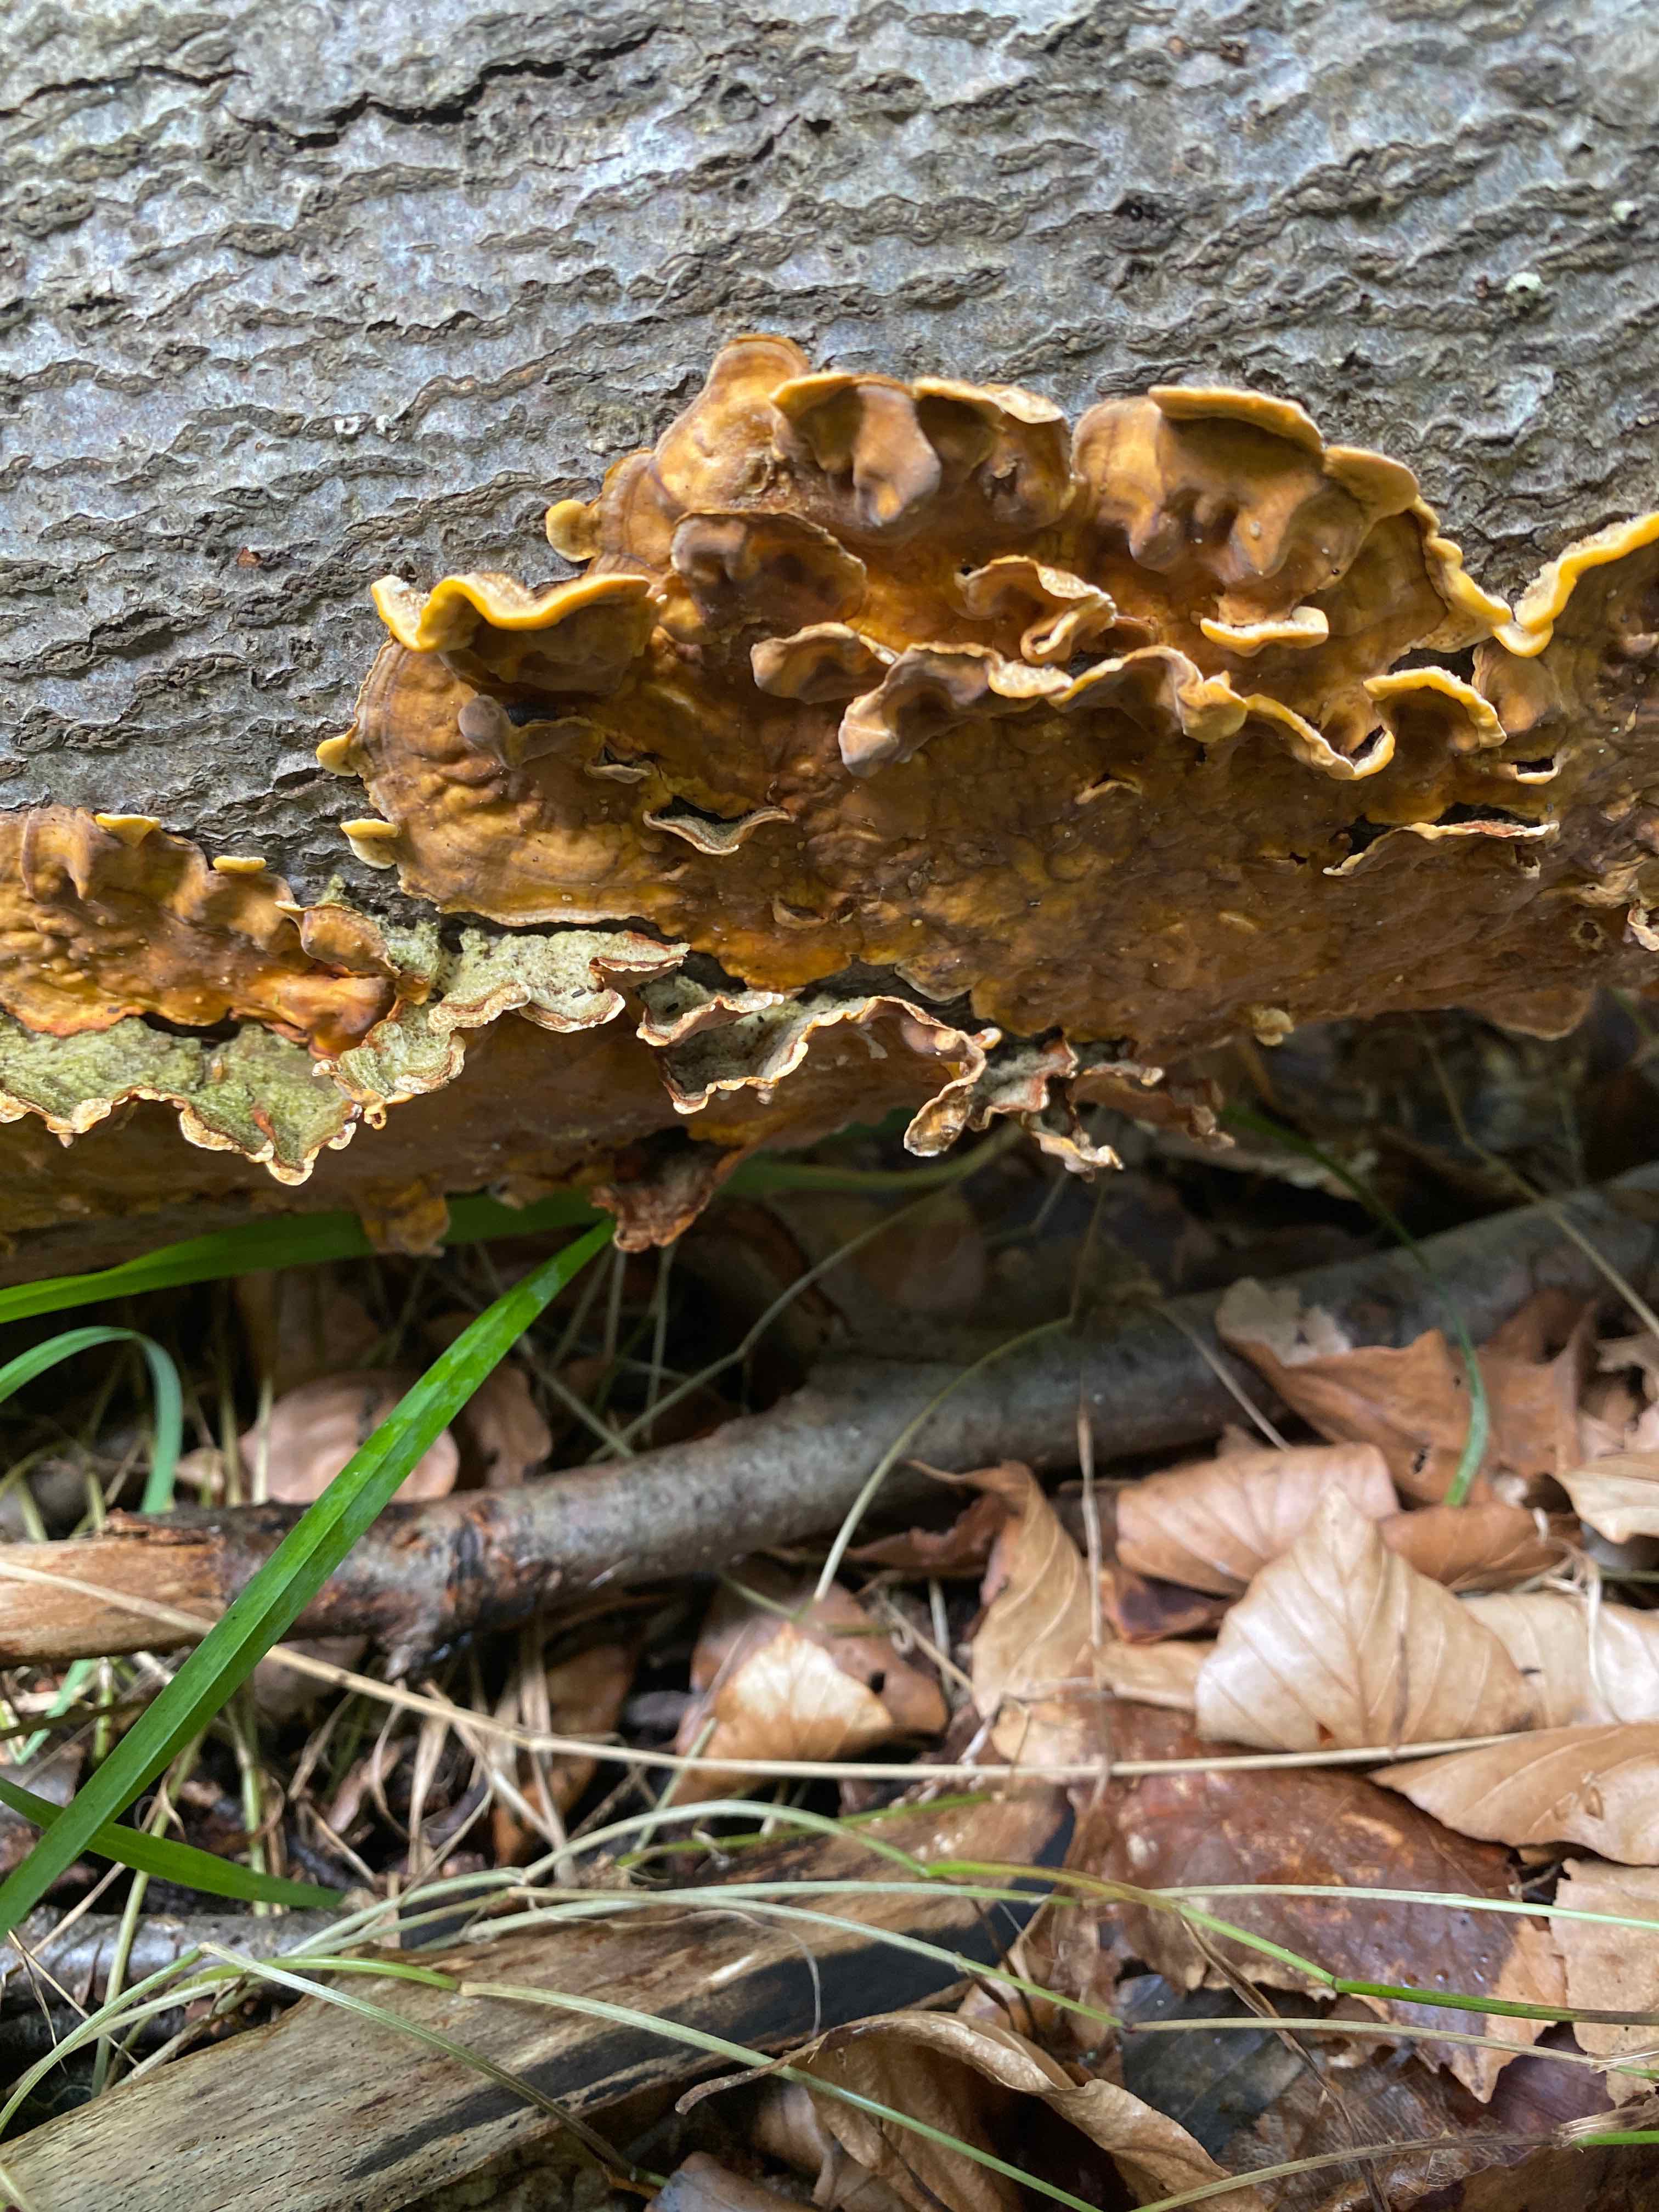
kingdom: Fungi
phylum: Basidiomycota
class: Agaricomycetes
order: Russulales
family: Stereaceae
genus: Stereum
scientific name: Stereum hirsutum
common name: håret lædersvamp
